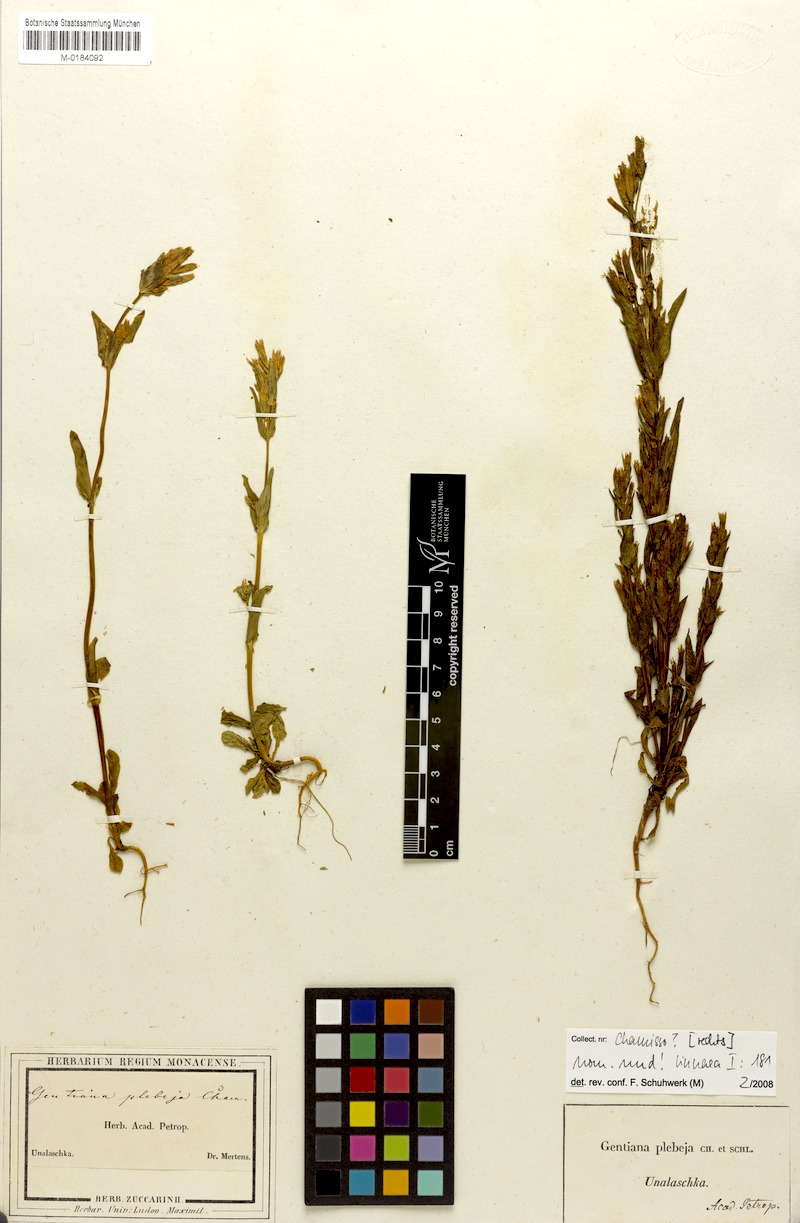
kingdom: Plantae
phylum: Tracheophyta
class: Magnoliopsida
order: Gentianales
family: Gentianaceae
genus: Gentianella
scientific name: Gentianella amarella
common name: Autumn gentian
